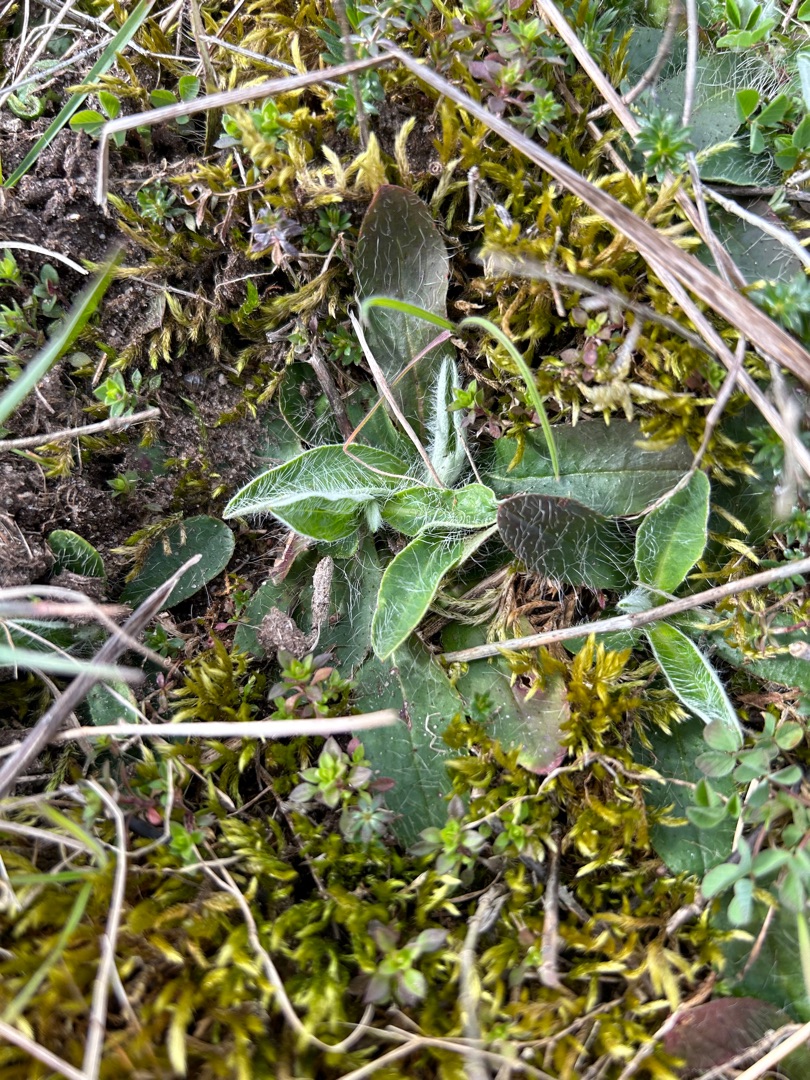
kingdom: Plantae
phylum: Tracheophyta
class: Magnoliopsida
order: Asterales
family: Asteraceae
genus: Pilosella
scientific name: Pilosella officinarum
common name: Håret høgeurt
